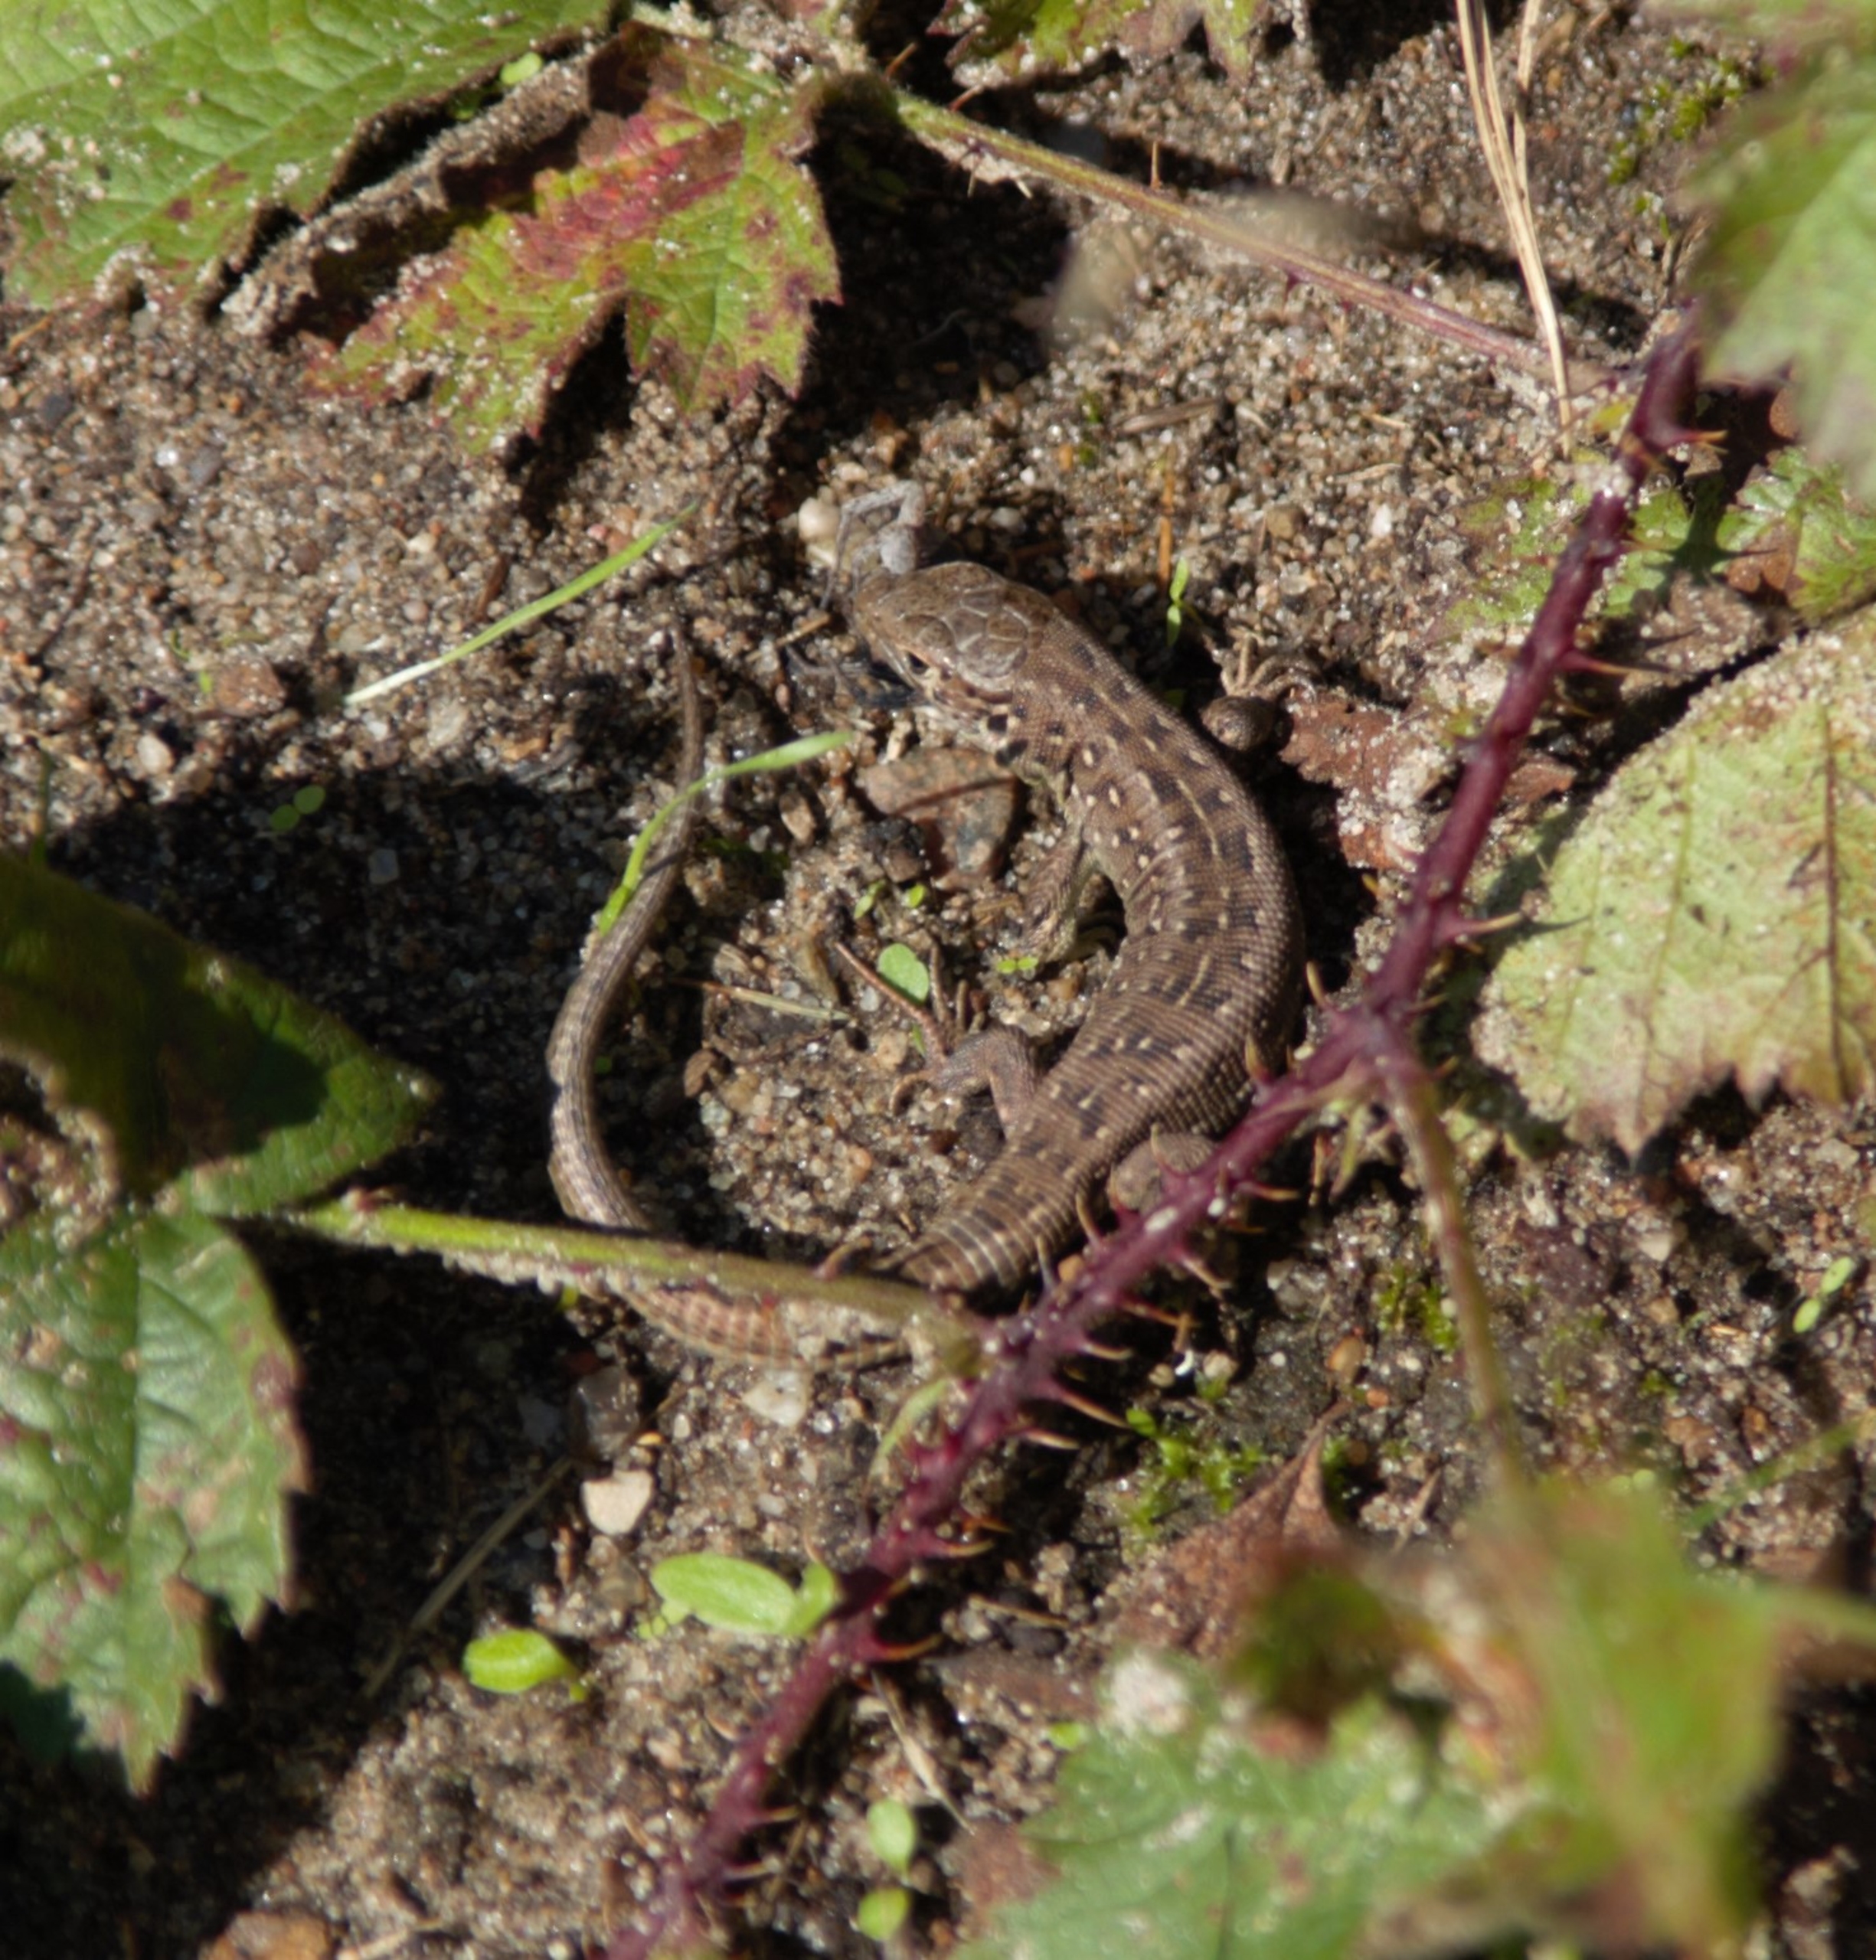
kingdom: Animalia
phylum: Chordata
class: Squamata
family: Lacertidae
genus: Lacerta
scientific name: Lacerta agilis
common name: Markfirben
